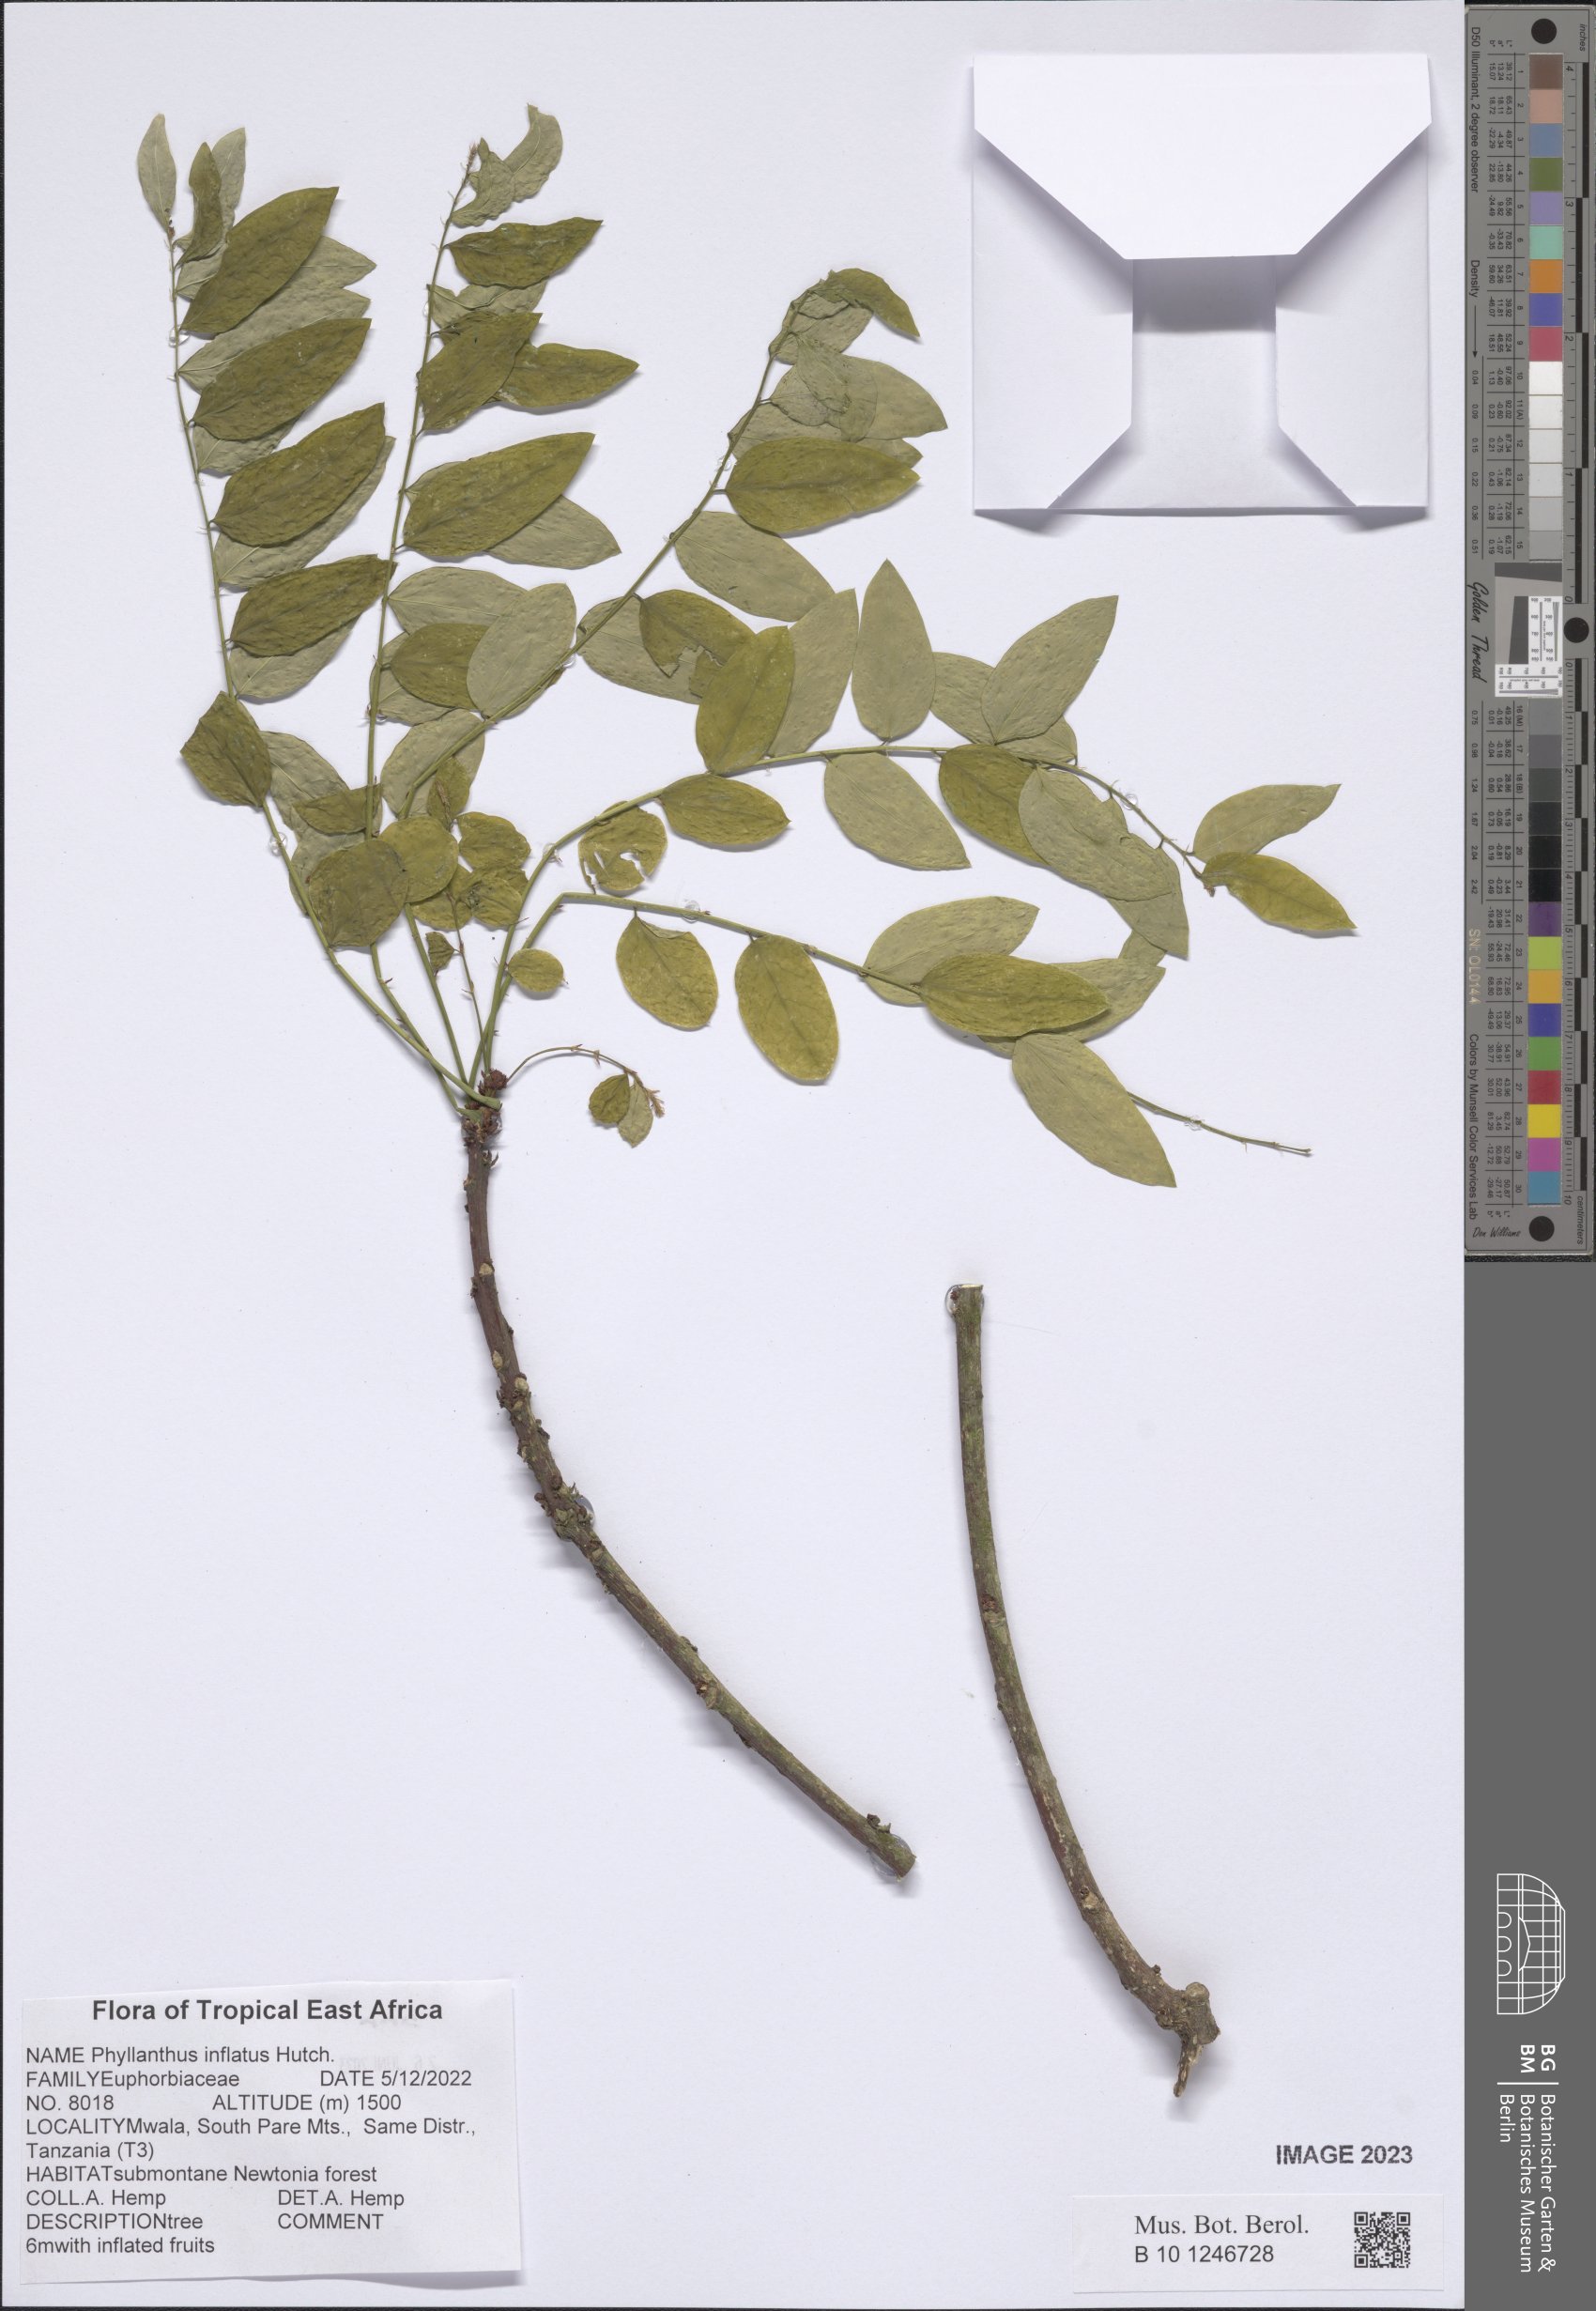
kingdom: Plantae
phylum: Tracheophyta
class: Magnoliopsida
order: Malpighiales
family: Phyllanthaceae
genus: Phyllanthus
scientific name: Phyllanthus inflatus
